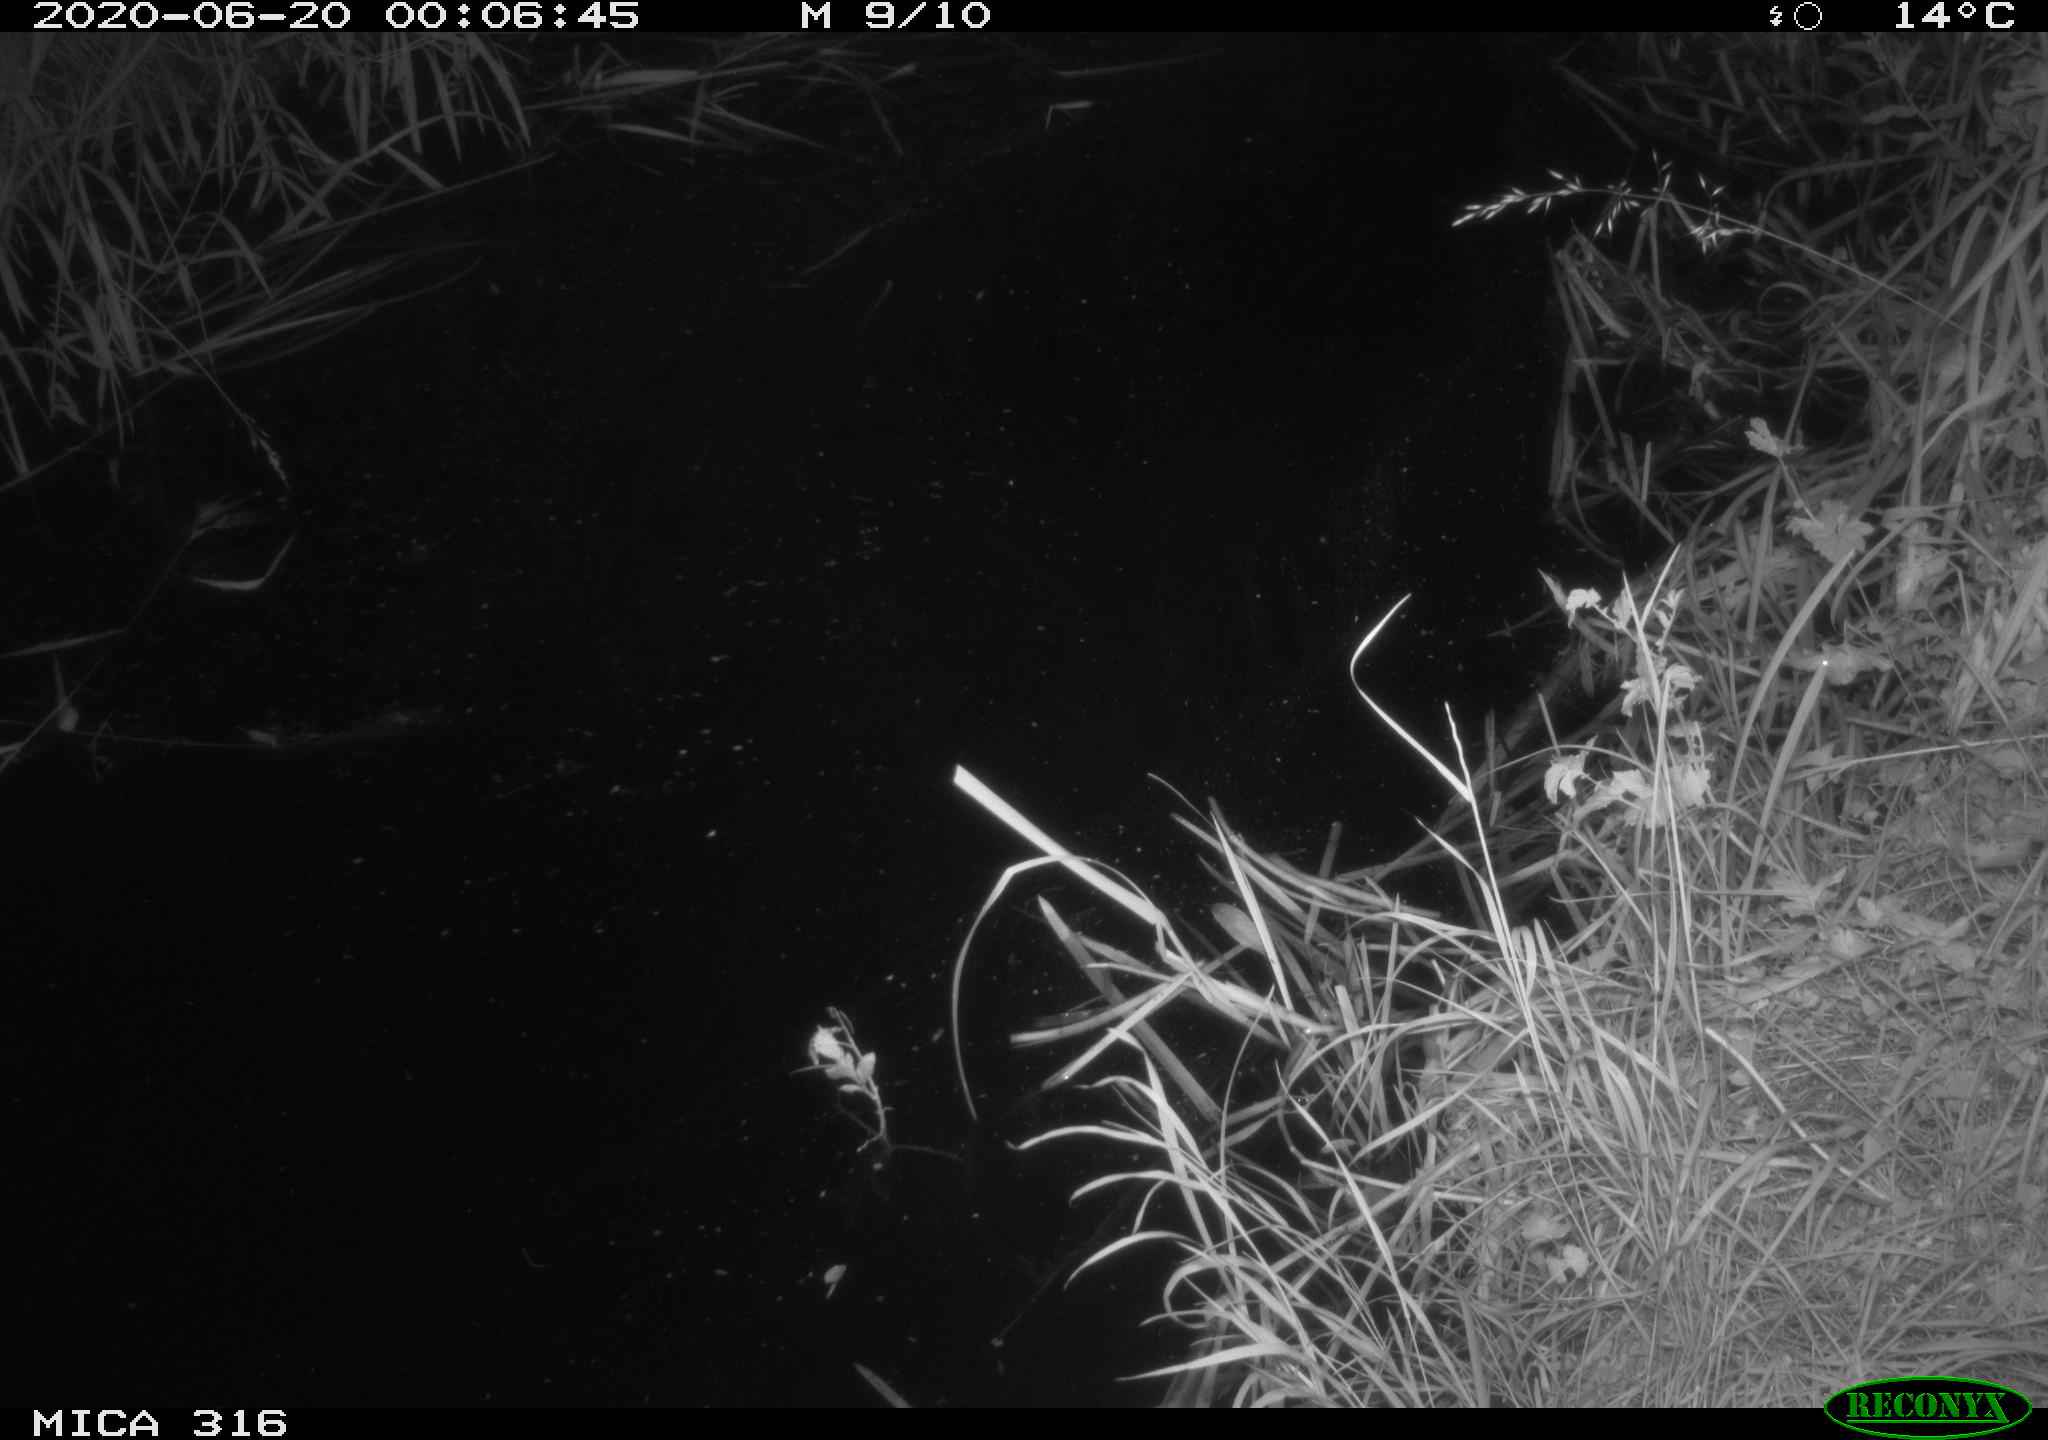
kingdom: Animalia
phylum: Chordata
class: Aves
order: Anseriformes
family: Anatidae
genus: Anas
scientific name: Anas platyrhynchos
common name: Mallard
